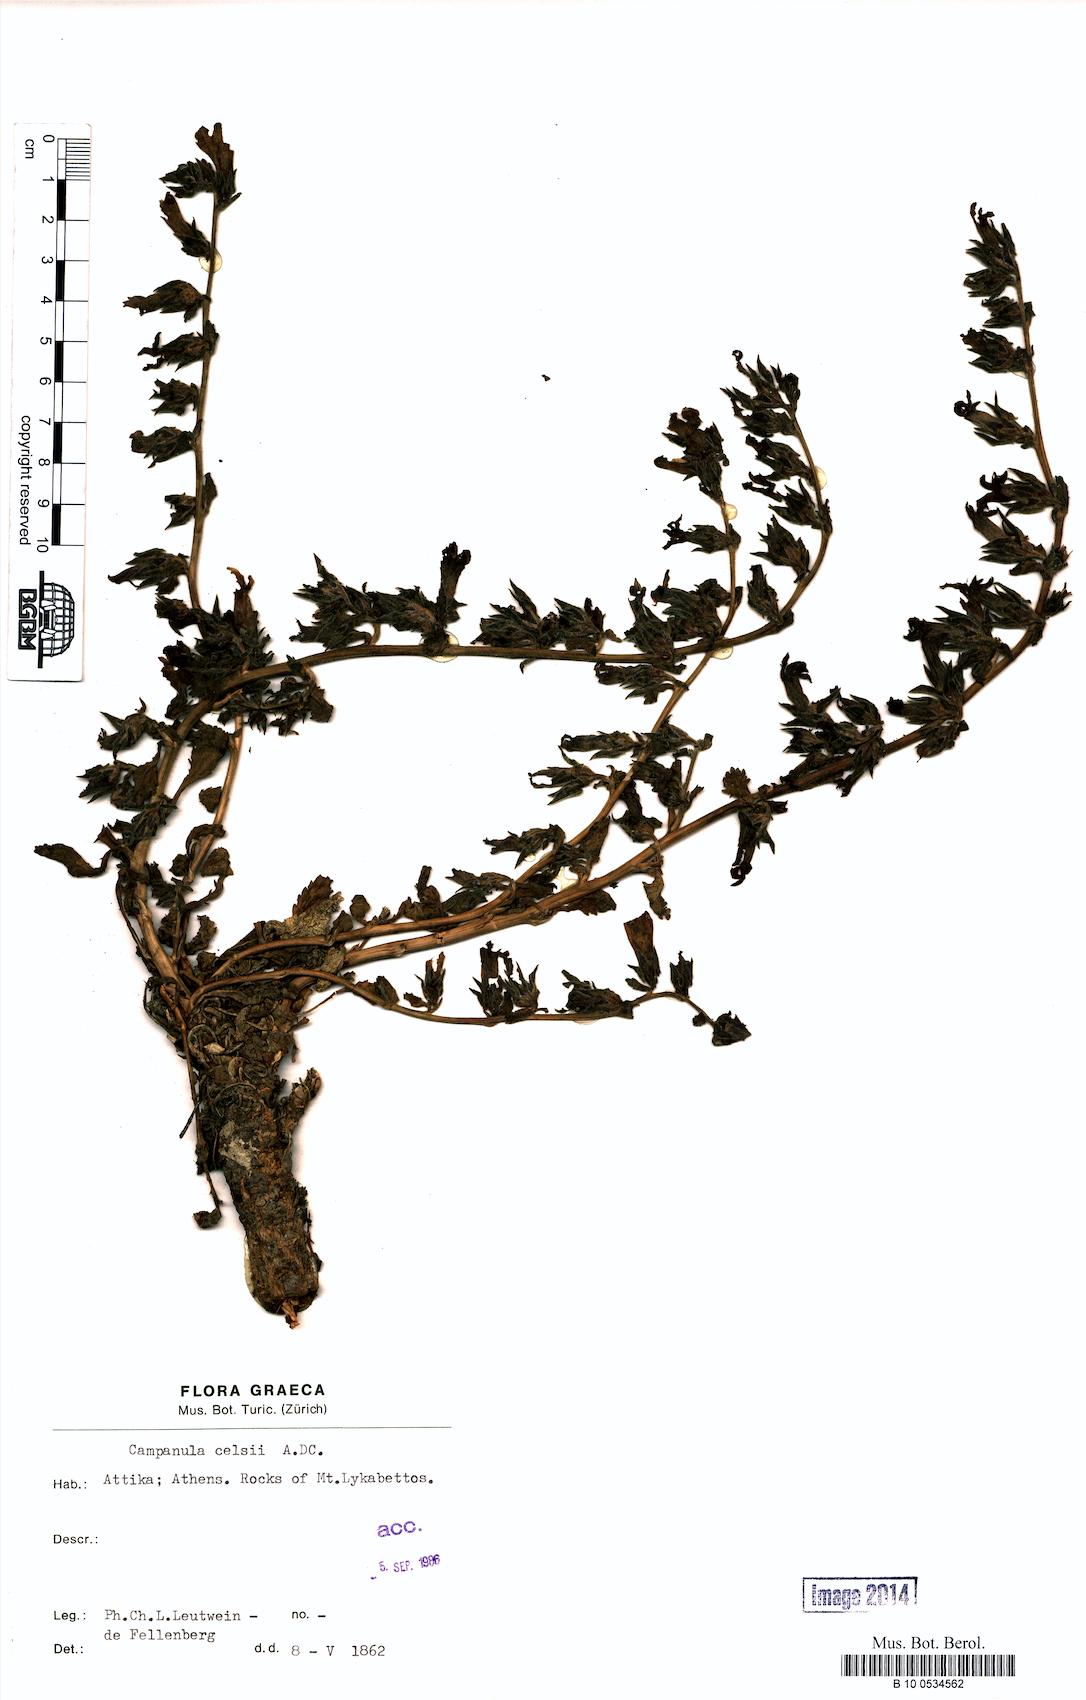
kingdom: Plantae
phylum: Tracheophyta
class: Magnoliopsida
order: Asterales
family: Campanulaceae
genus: Campanula
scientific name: Campanula celsii
